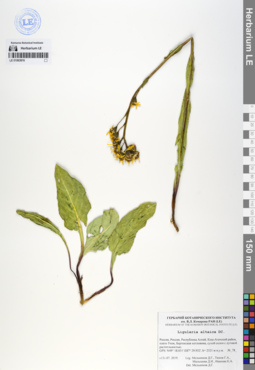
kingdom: Plantae
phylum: Tracheophyta
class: Magnoliopsida
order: Asterales
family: Asteraceae
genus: Ligularia
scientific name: Ligularia altaica
